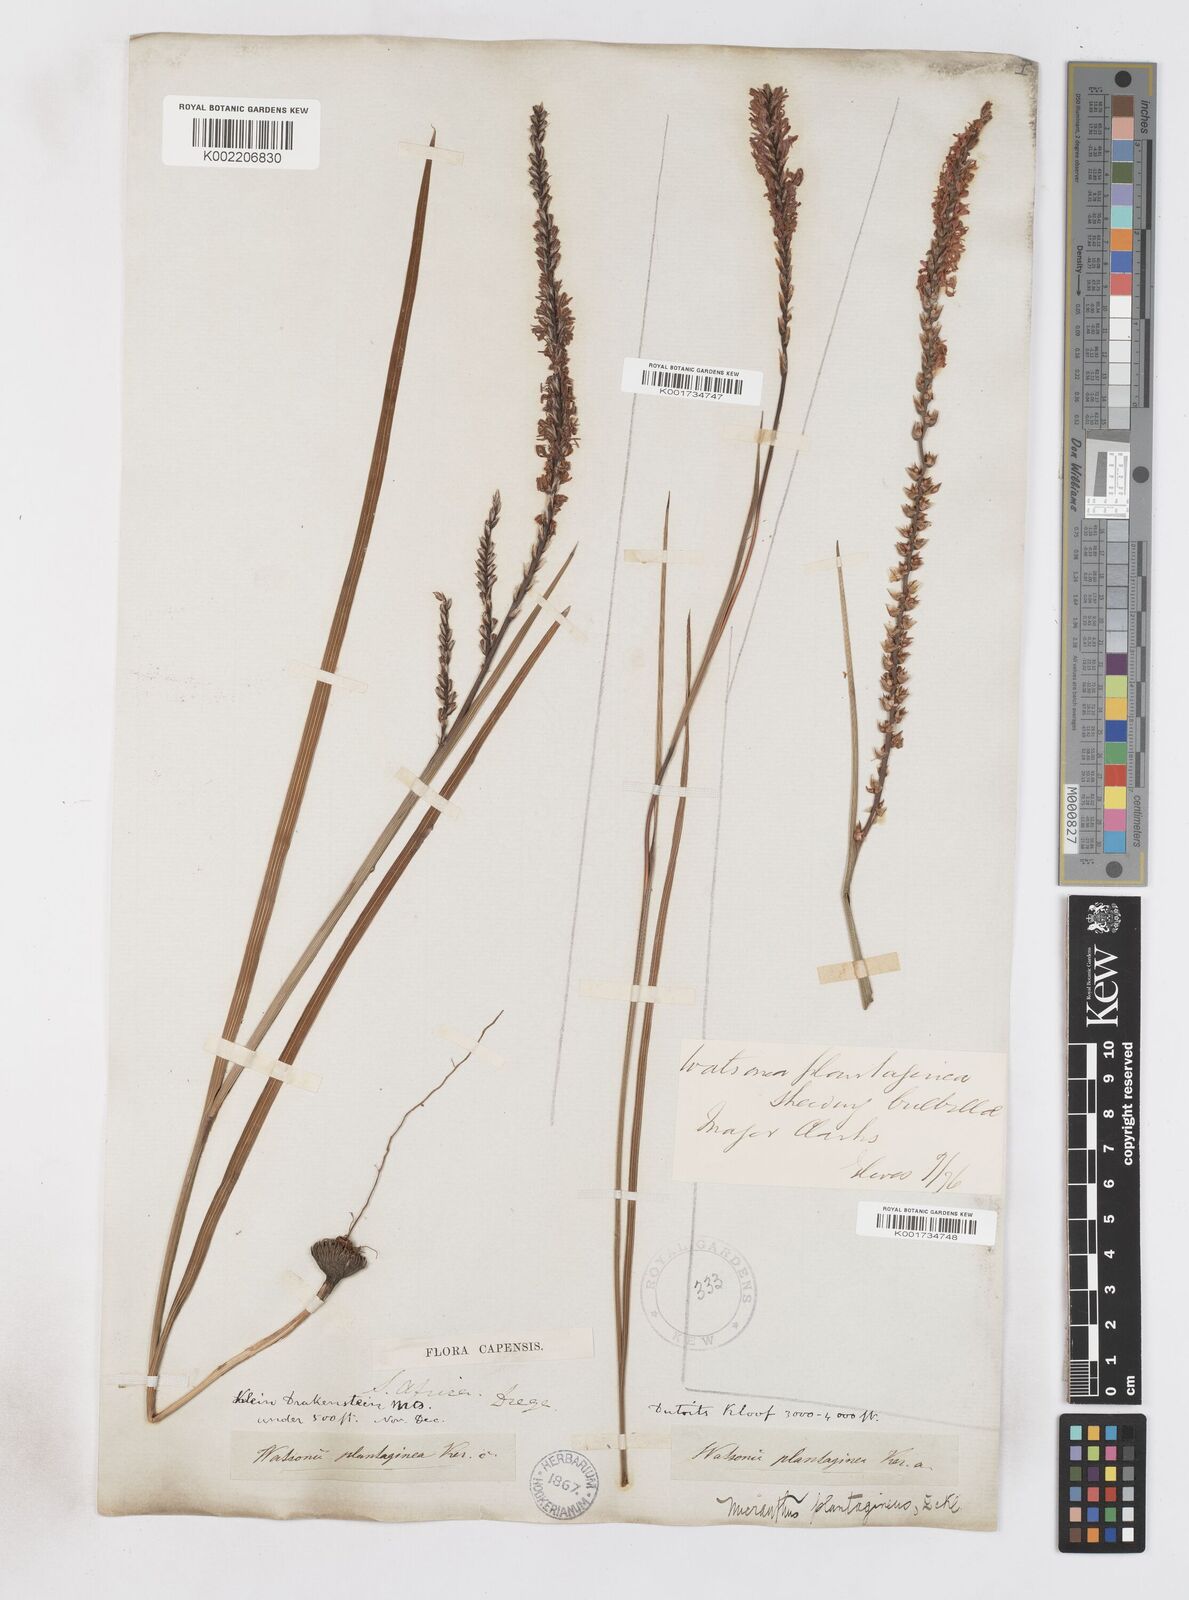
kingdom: Plantae
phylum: Tracheophyta
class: Liliopsida
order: Asparagales
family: Iridaceae
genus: Micranthus
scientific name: Micranthus alopecuroides
